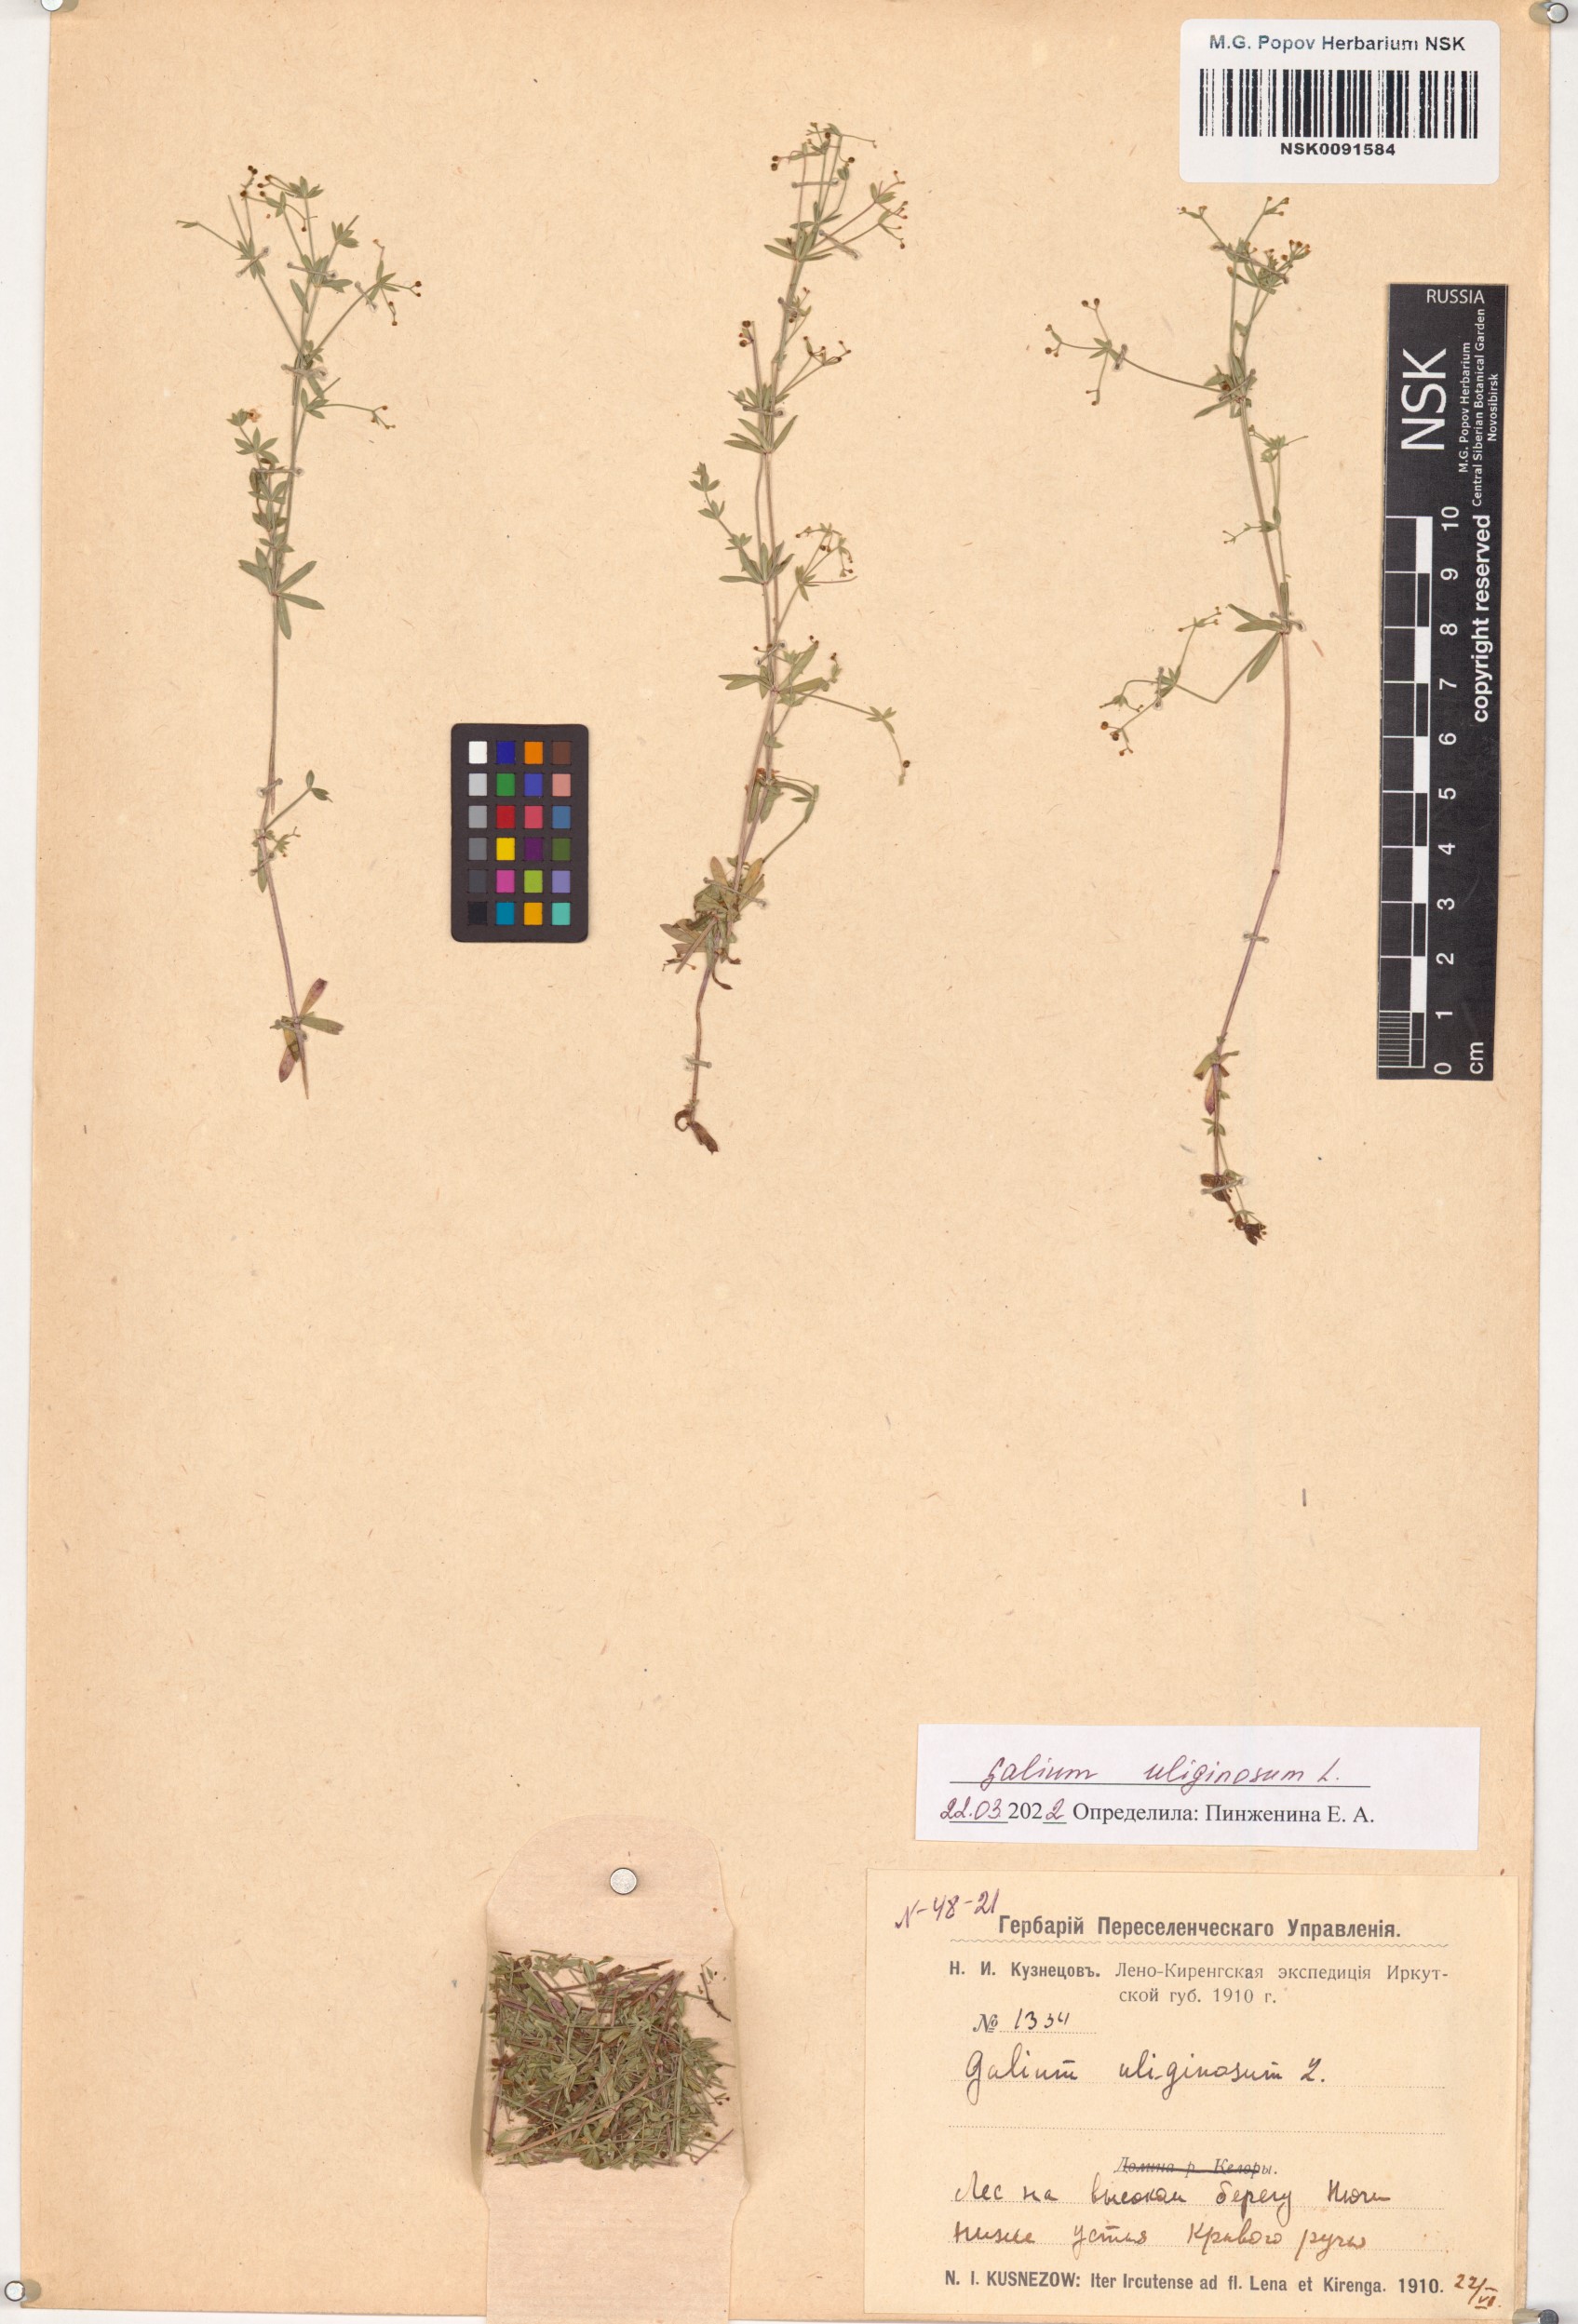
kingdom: Plantae
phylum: Tracheophyta
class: Magnoliopsida
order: Gentianales
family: Rubiaceae
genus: Galium
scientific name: Galium uliginosum
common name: Fen bedstraw
